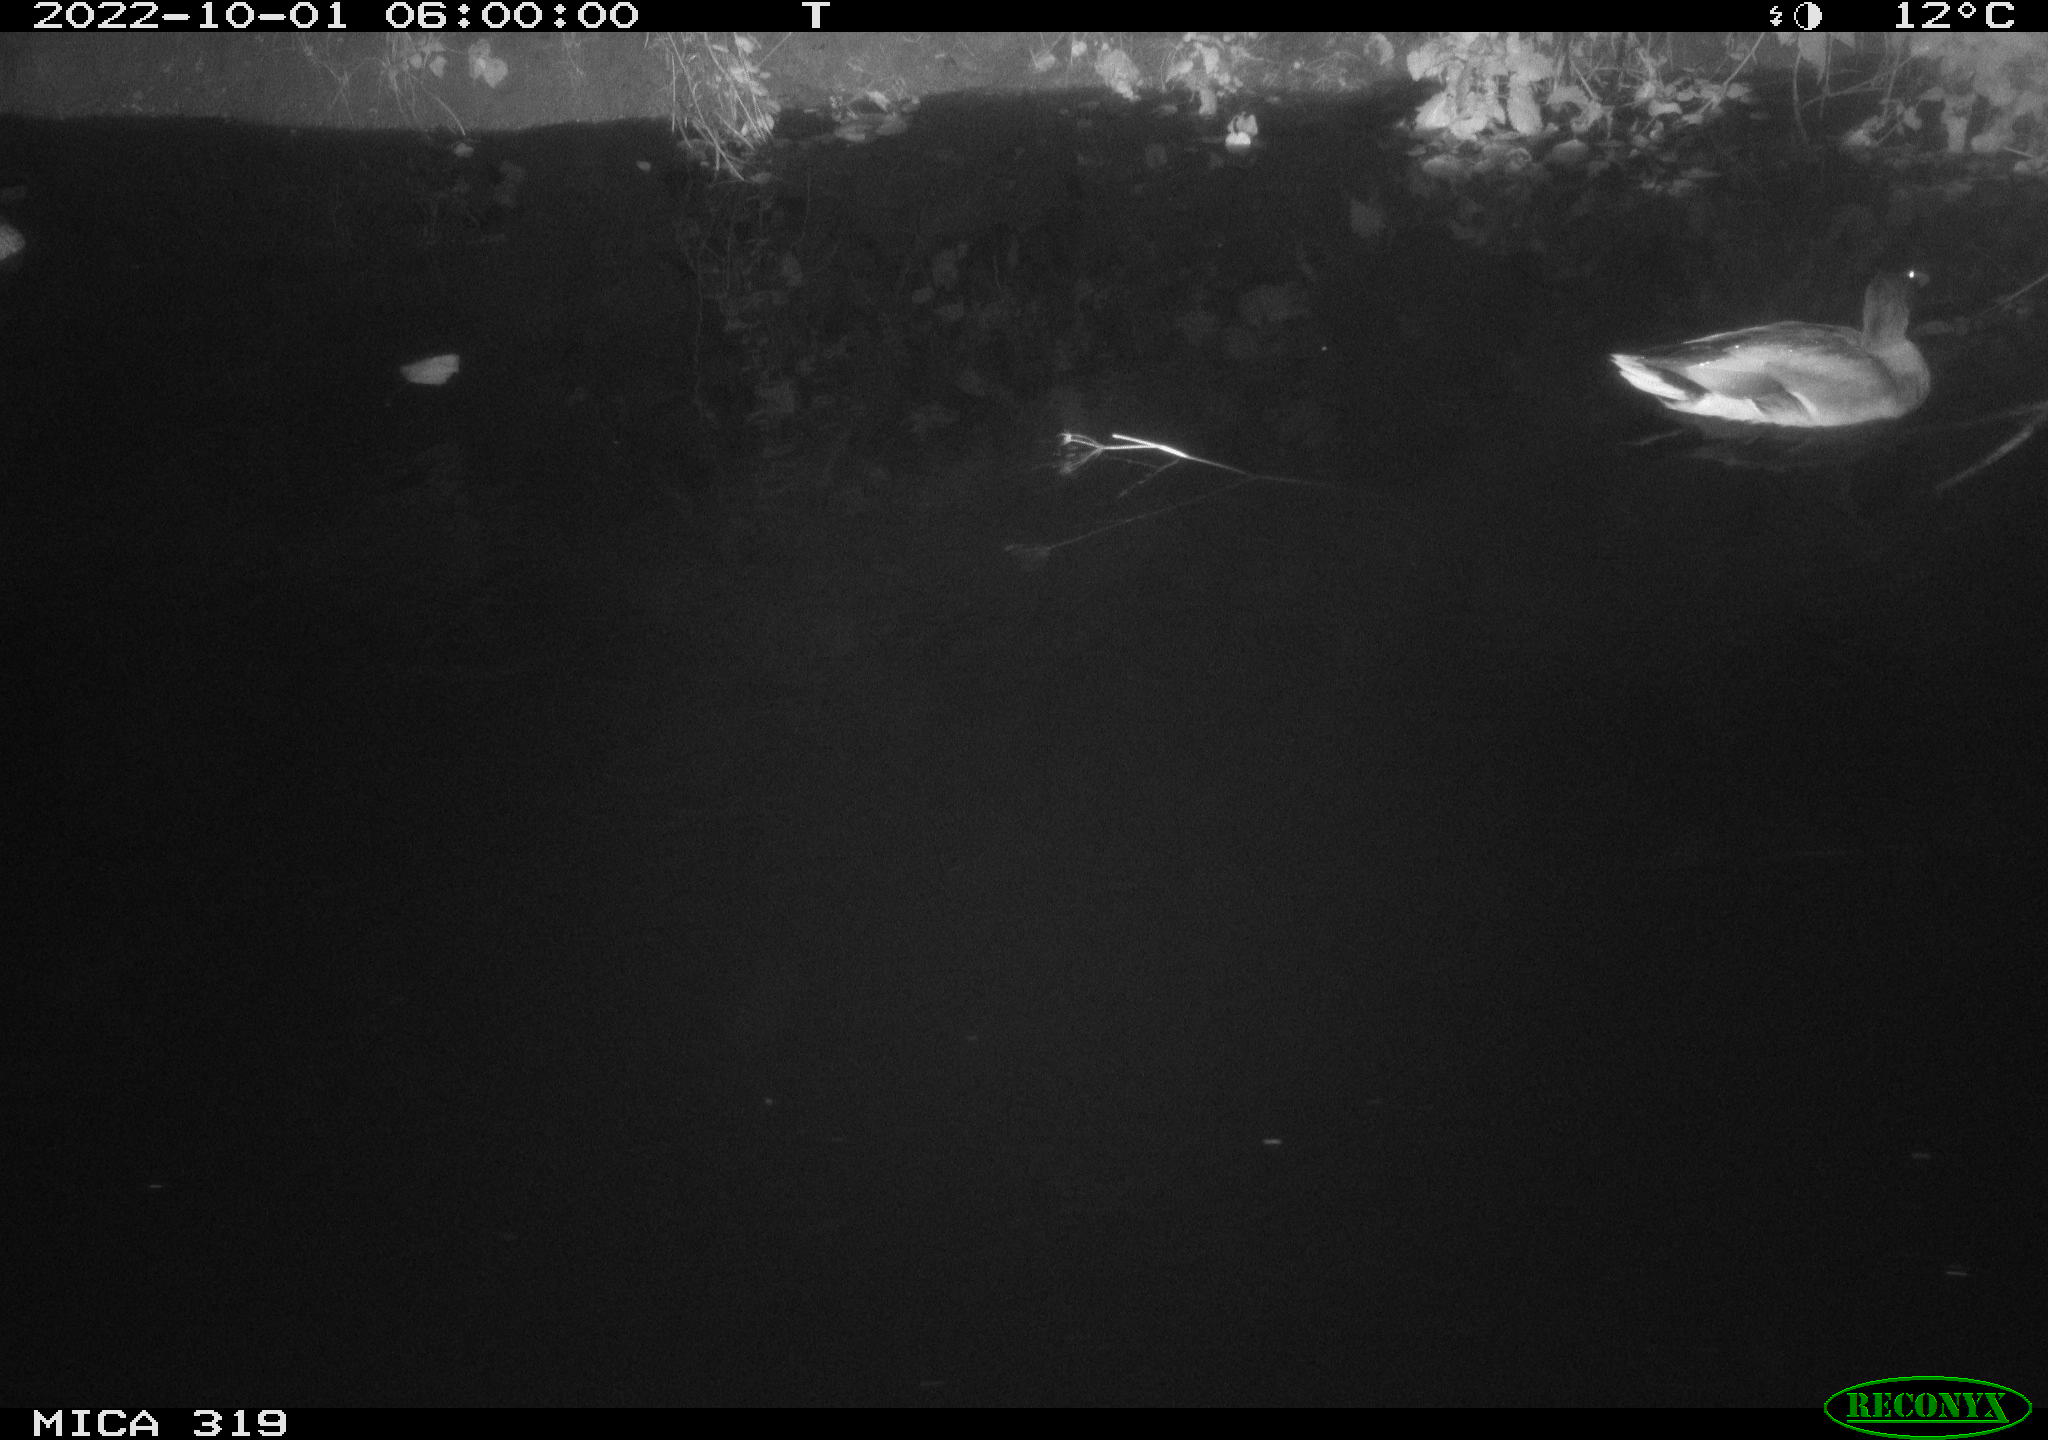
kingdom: Animalia
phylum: Chordata
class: Aves
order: Anseriformes
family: Anatidae
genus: Anas
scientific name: Anas
